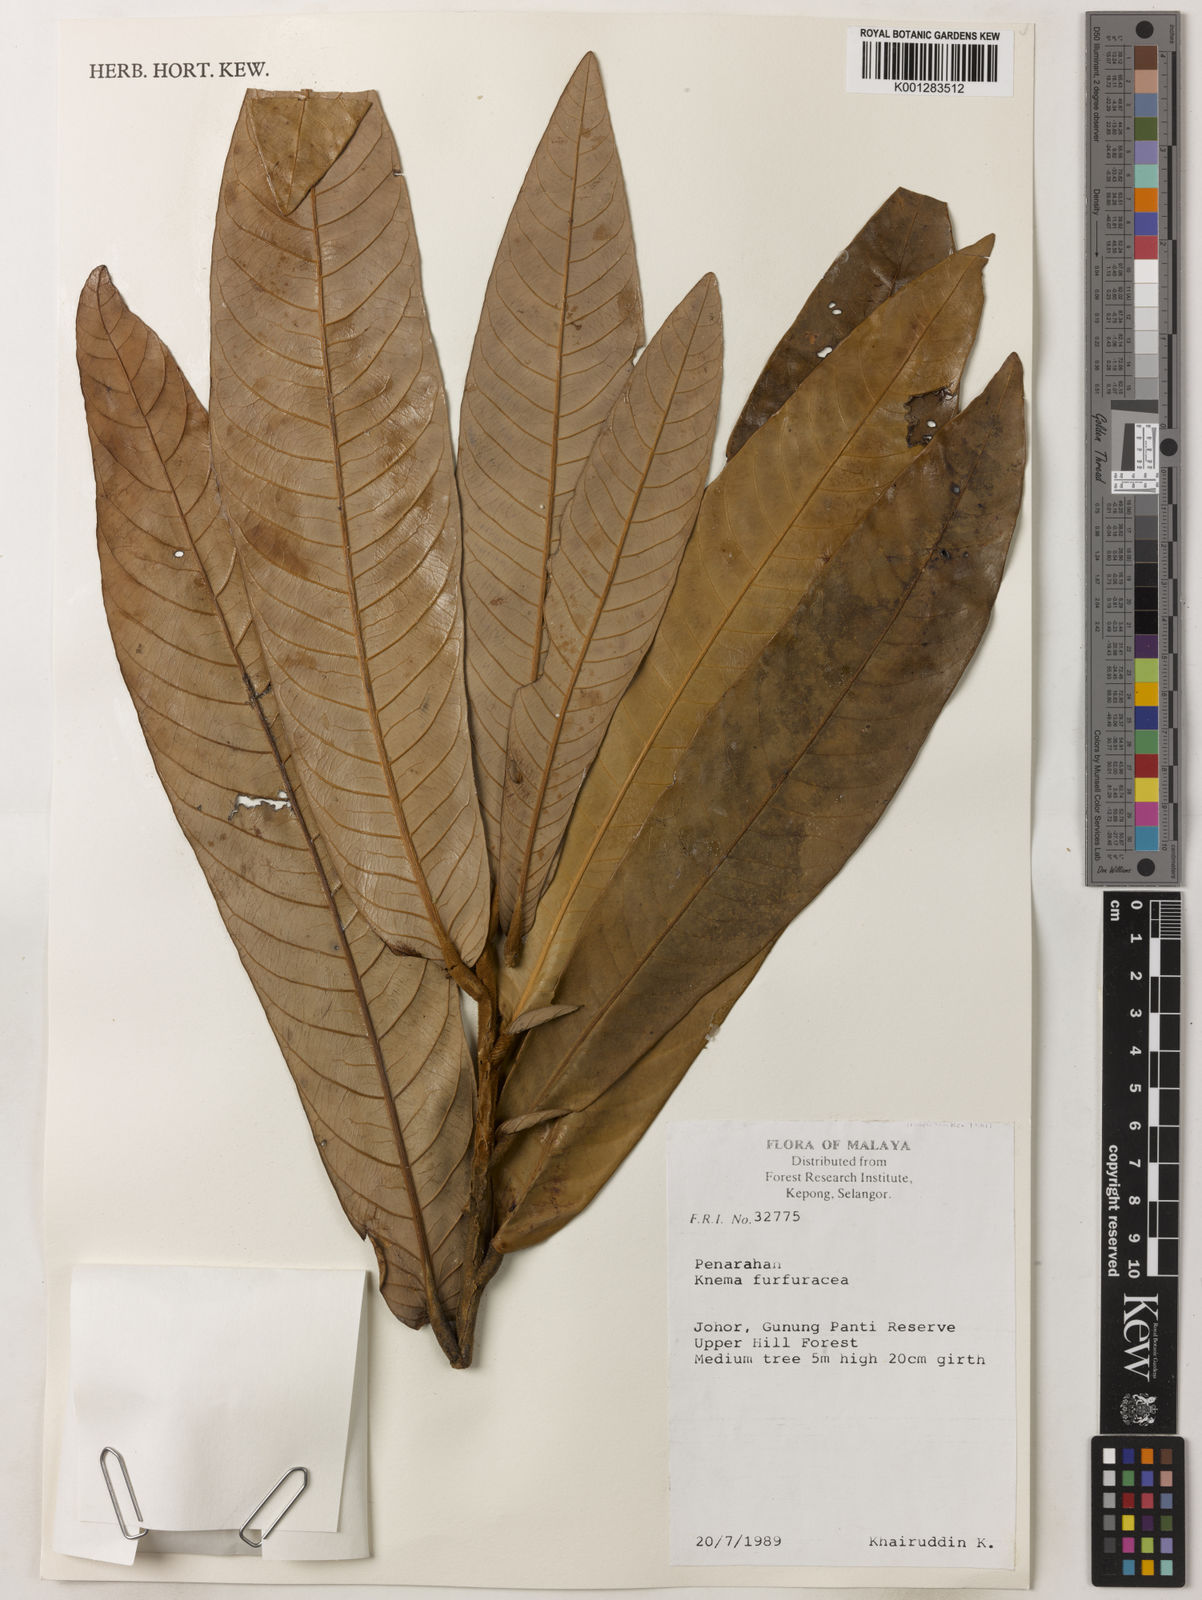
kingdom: Plantae
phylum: Tracheophyta
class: Magnoliopsida
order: Magnoliales
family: Myristicaceae
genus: Knema
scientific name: Knema furfuracea
